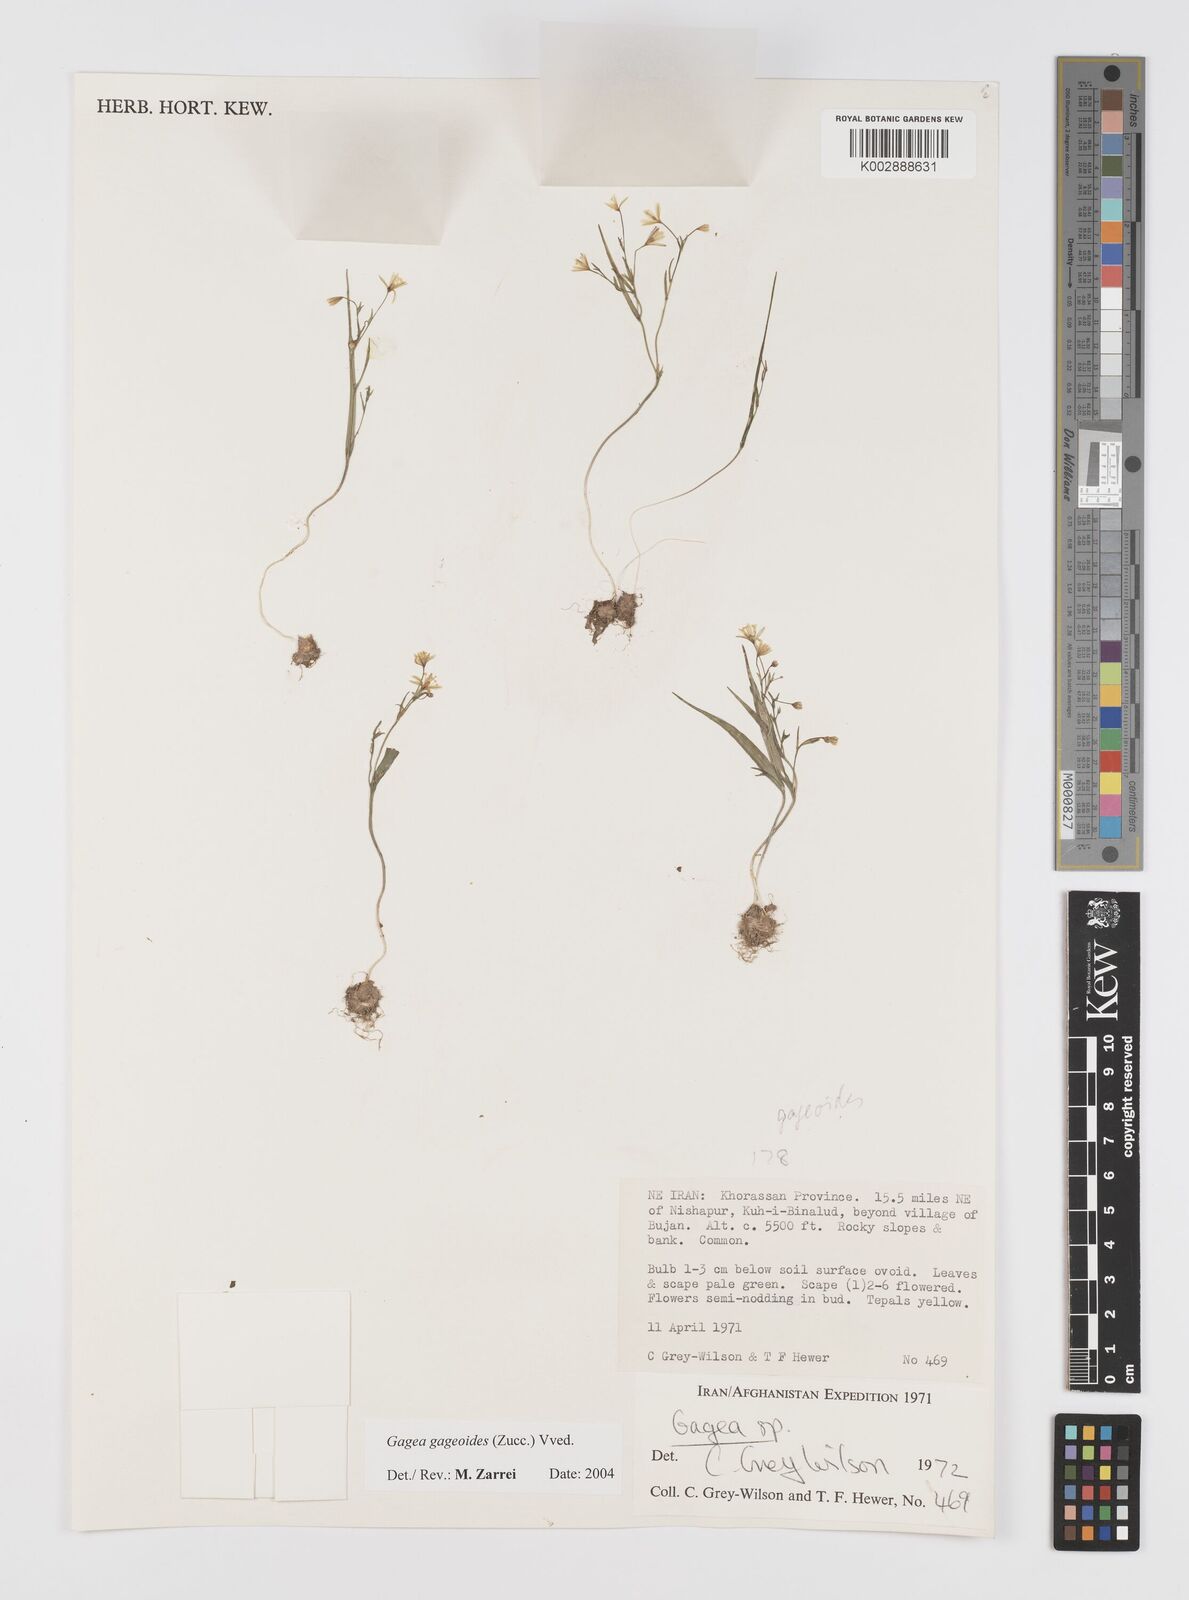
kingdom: Plantae
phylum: Tracheophyta
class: Liliopsida
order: Liliales
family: Liliaceae
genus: Gagea
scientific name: Gagea gageoides
